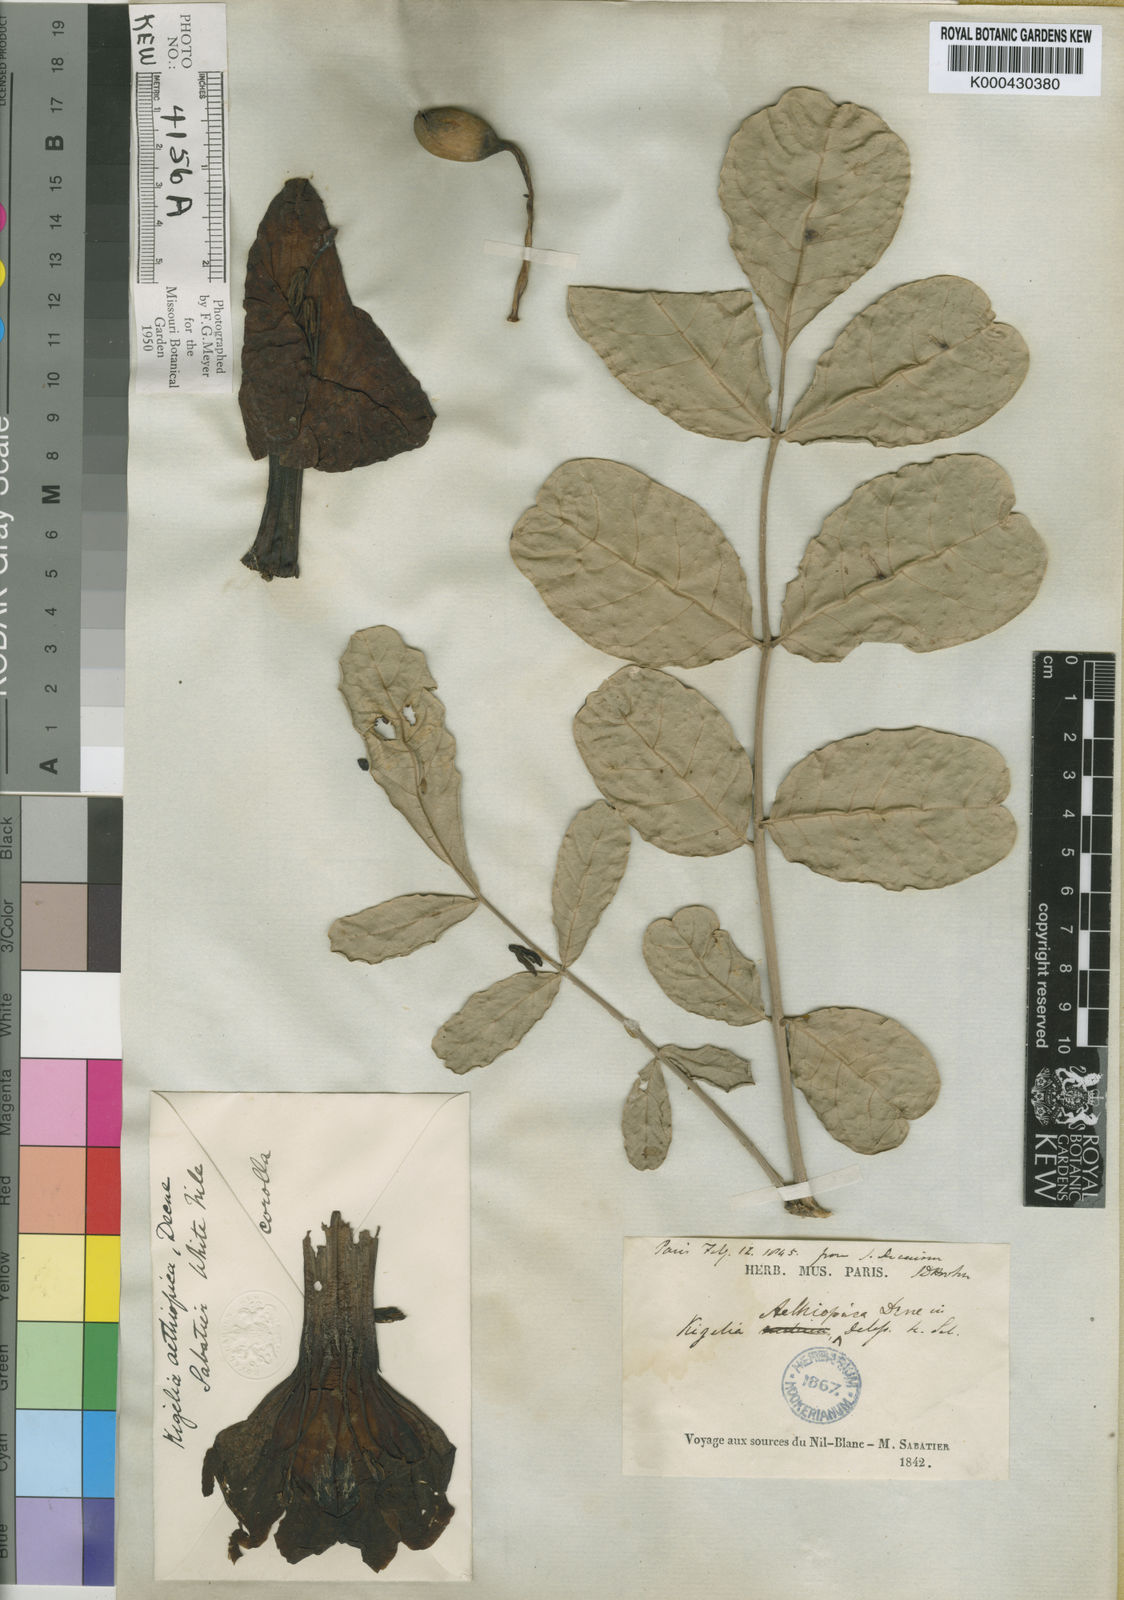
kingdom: Plantae
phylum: Tracheophyta
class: Magnoliopsida
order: Lamiales
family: Bignoniaceae
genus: Kigelia
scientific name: Kigelia africana
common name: Sausage tree
